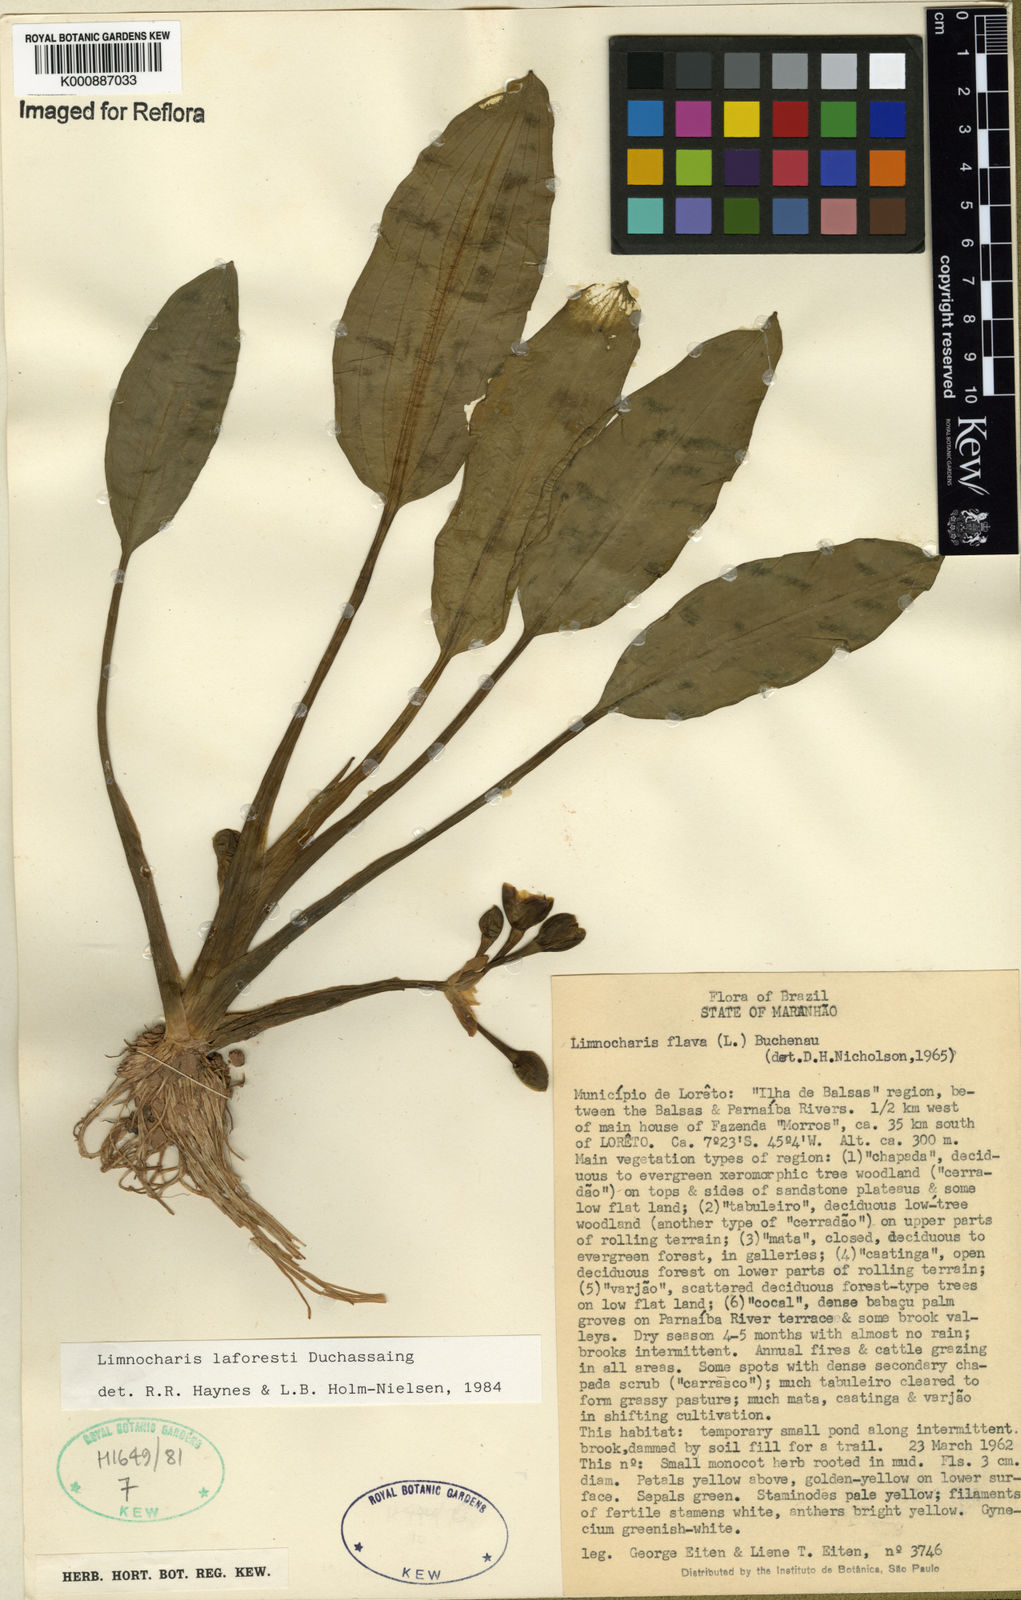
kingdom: Plantae
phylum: Tracheophyta
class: Liliopsida
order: Alismatales
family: Alismataceae
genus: Limnocharis
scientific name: Limnocharis laforestii
